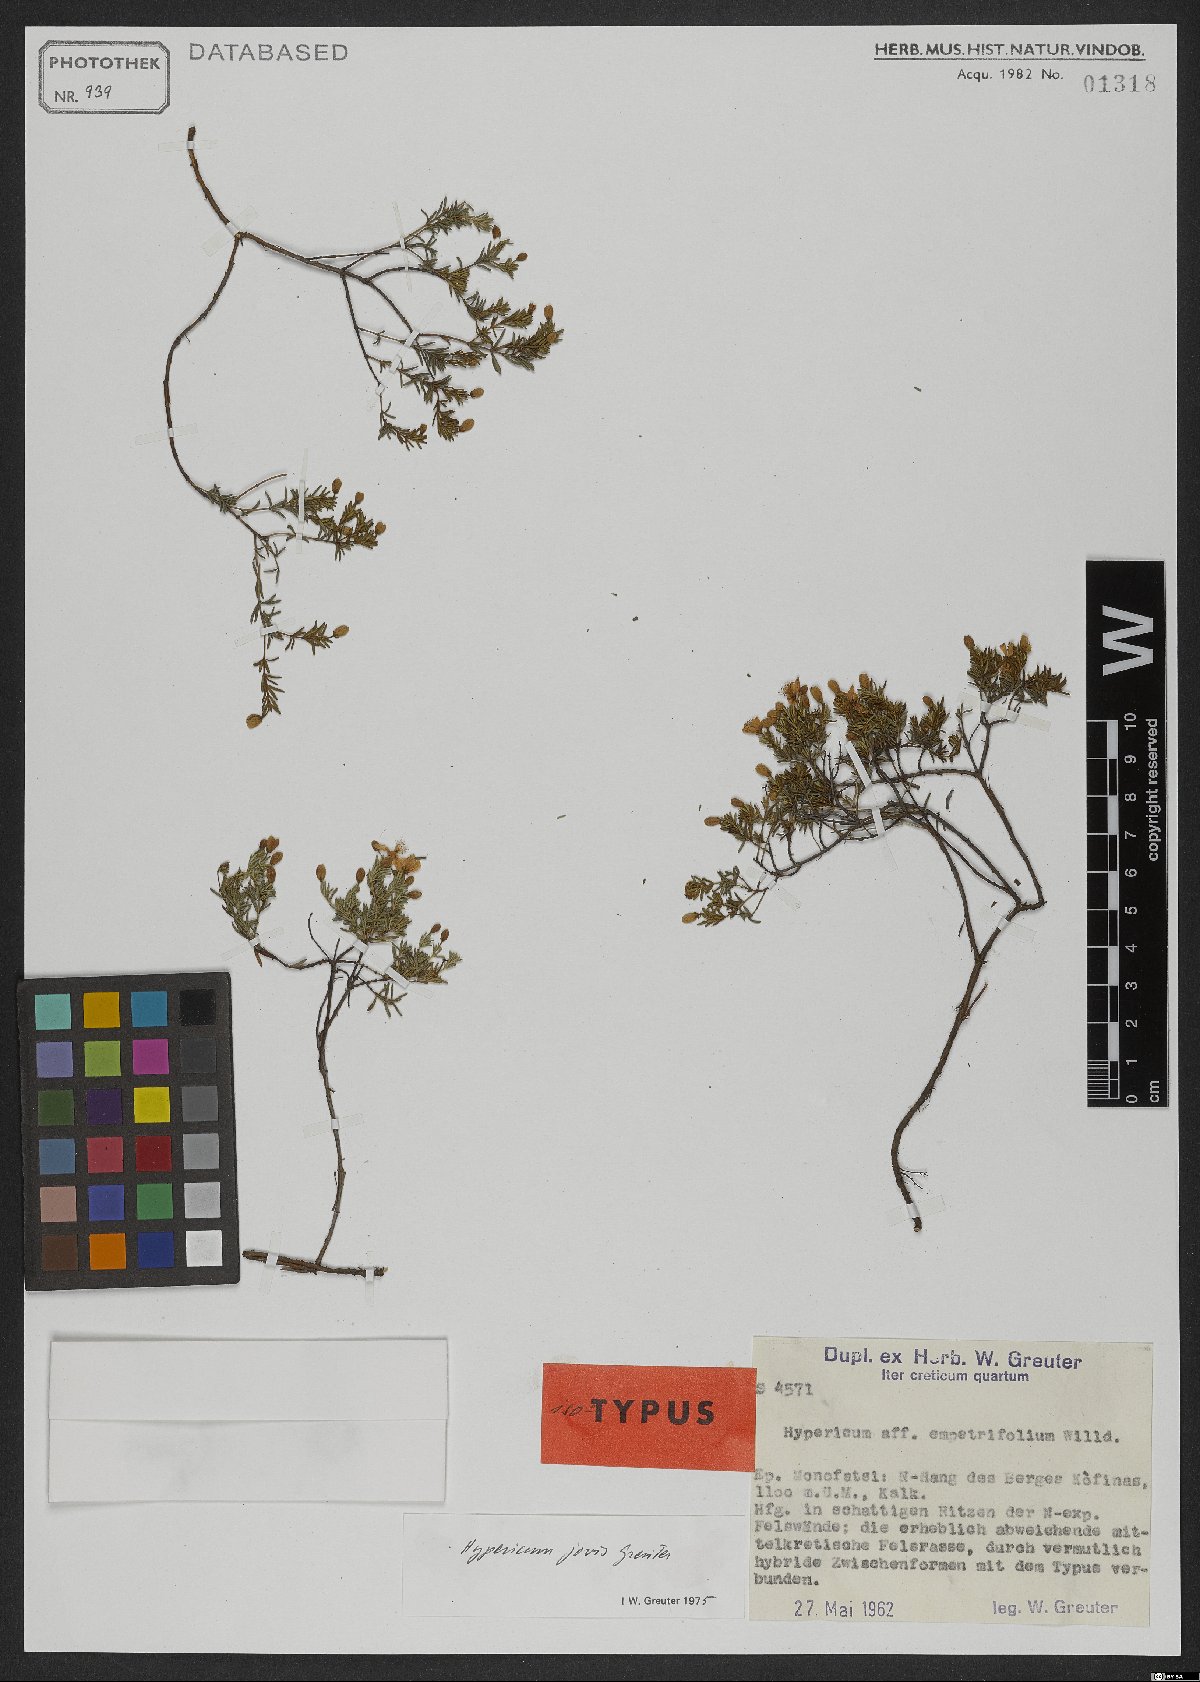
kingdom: Plantae
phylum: Tracheophyta
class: Magnoliopsida
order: Malpighiales
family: Hypericaceae
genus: Hypericum
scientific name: Hypericum jovis
